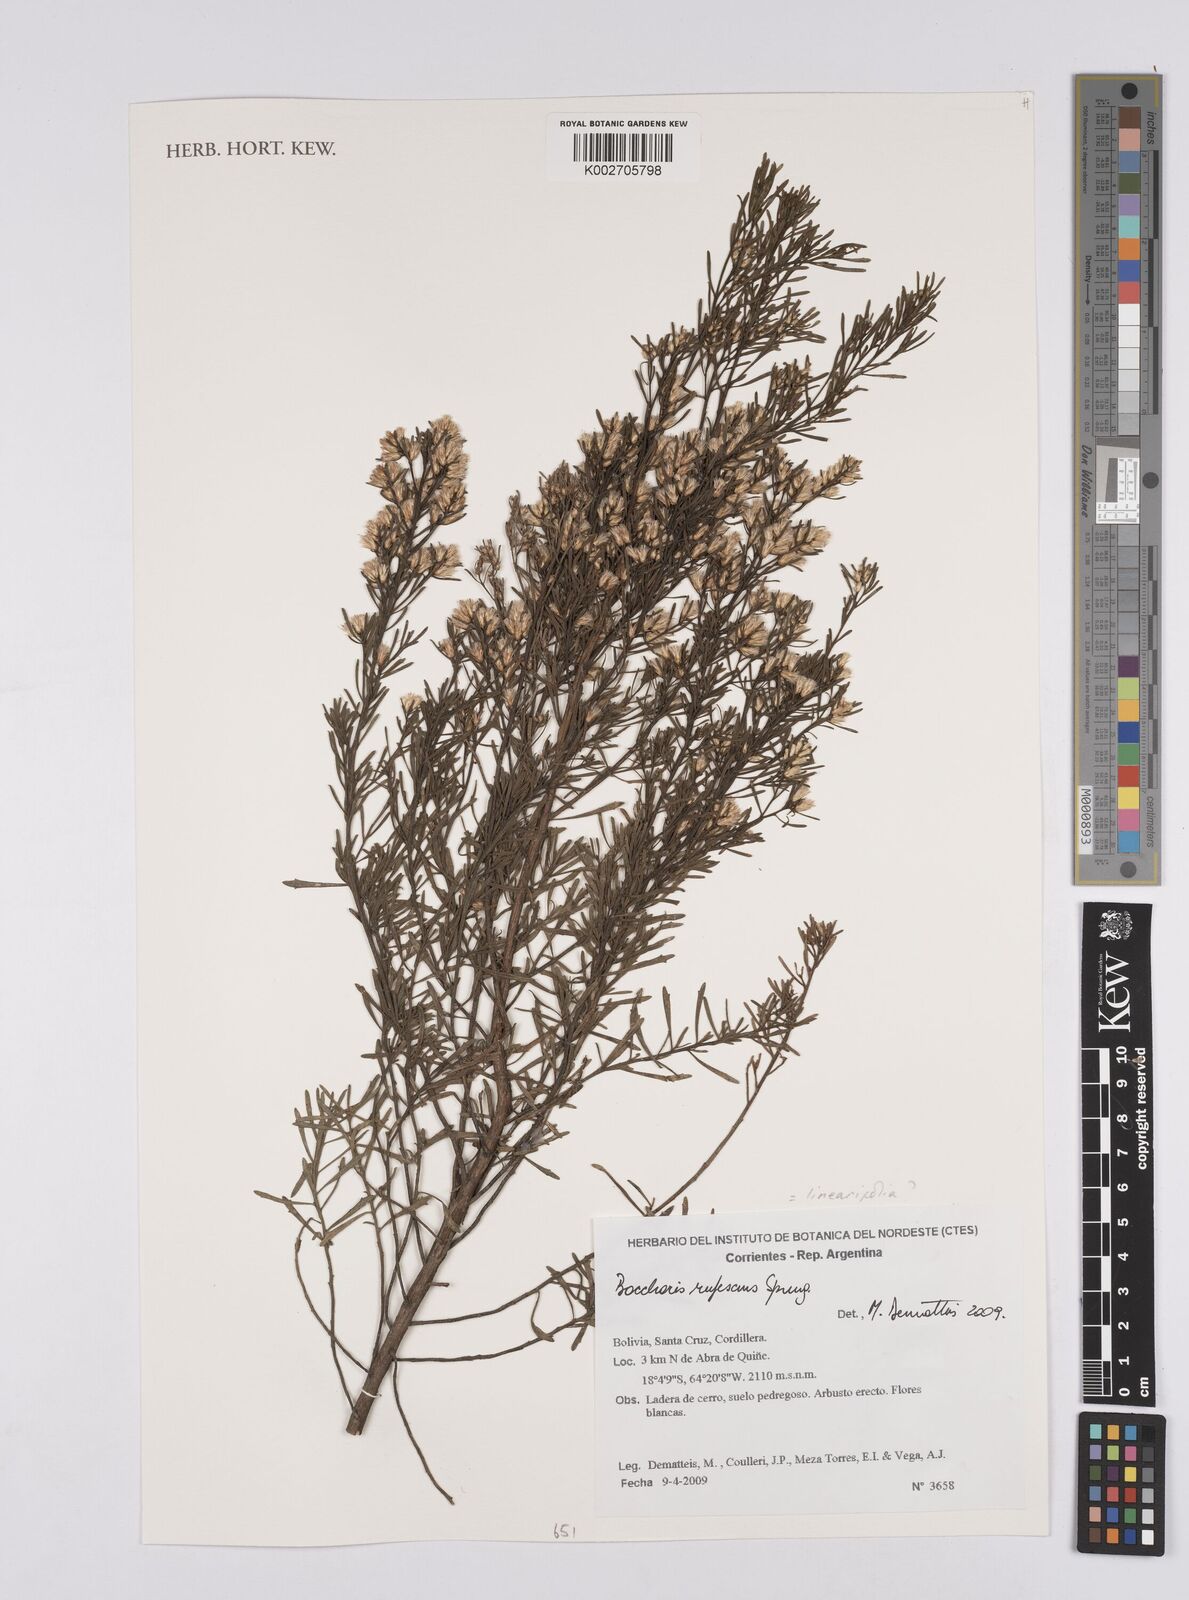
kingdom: Plantae
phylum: Tracheophyta
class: Magnoliopsida
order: Asterales
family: Asteraceae
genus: Baccharis
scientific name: Baccharis linearis
